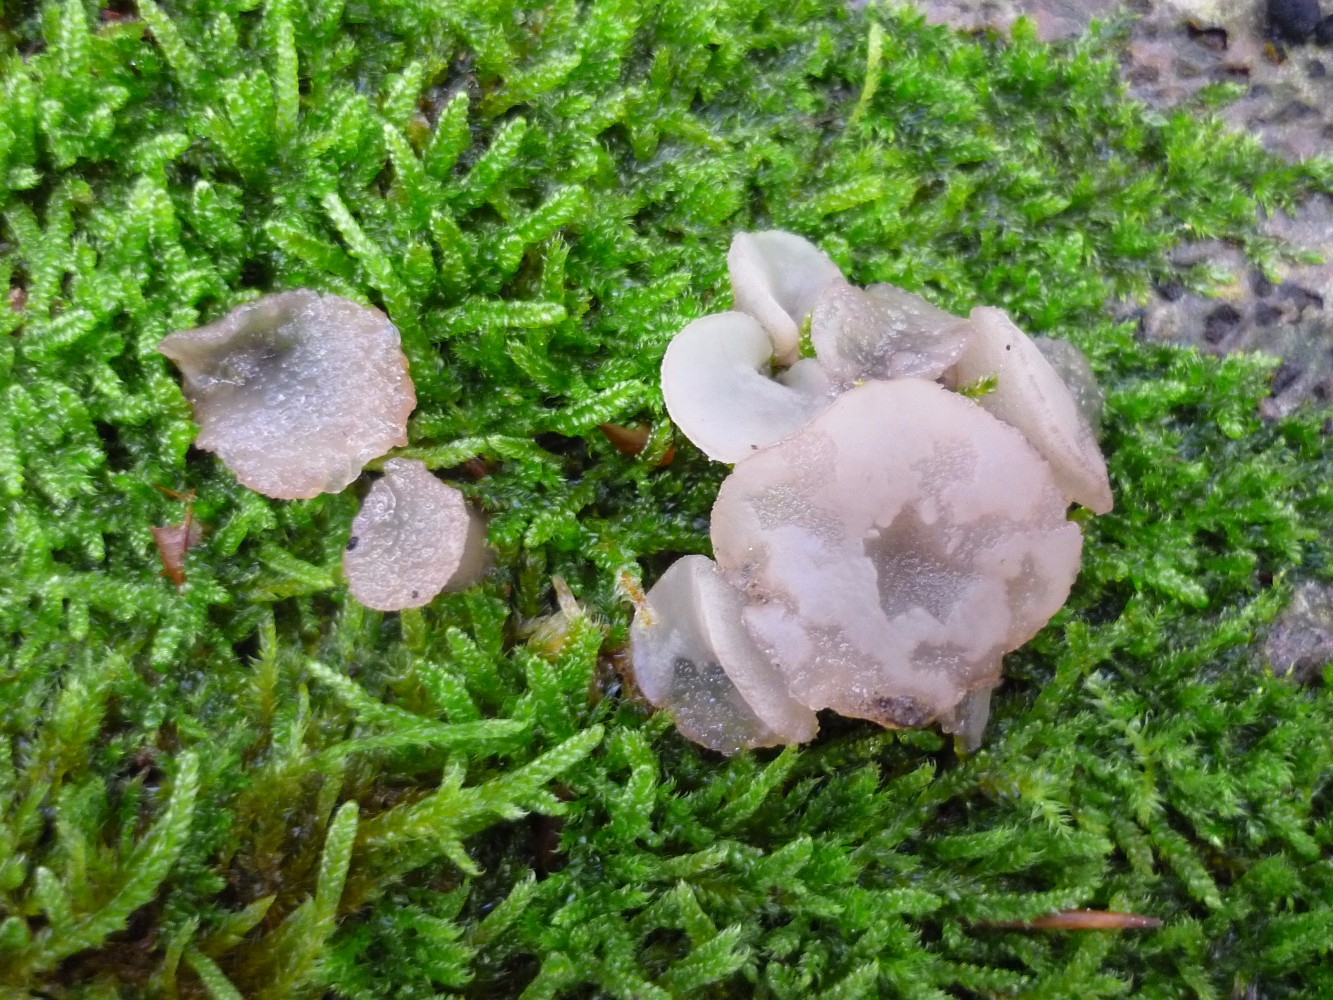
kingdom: Fungi
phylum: Ascomycota
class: Leotiomycetes
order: Helotiales
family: Gelatinodiscaceae
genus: Neobulgaria
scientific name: Neobulgaria pura
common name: bleg bævreskive
